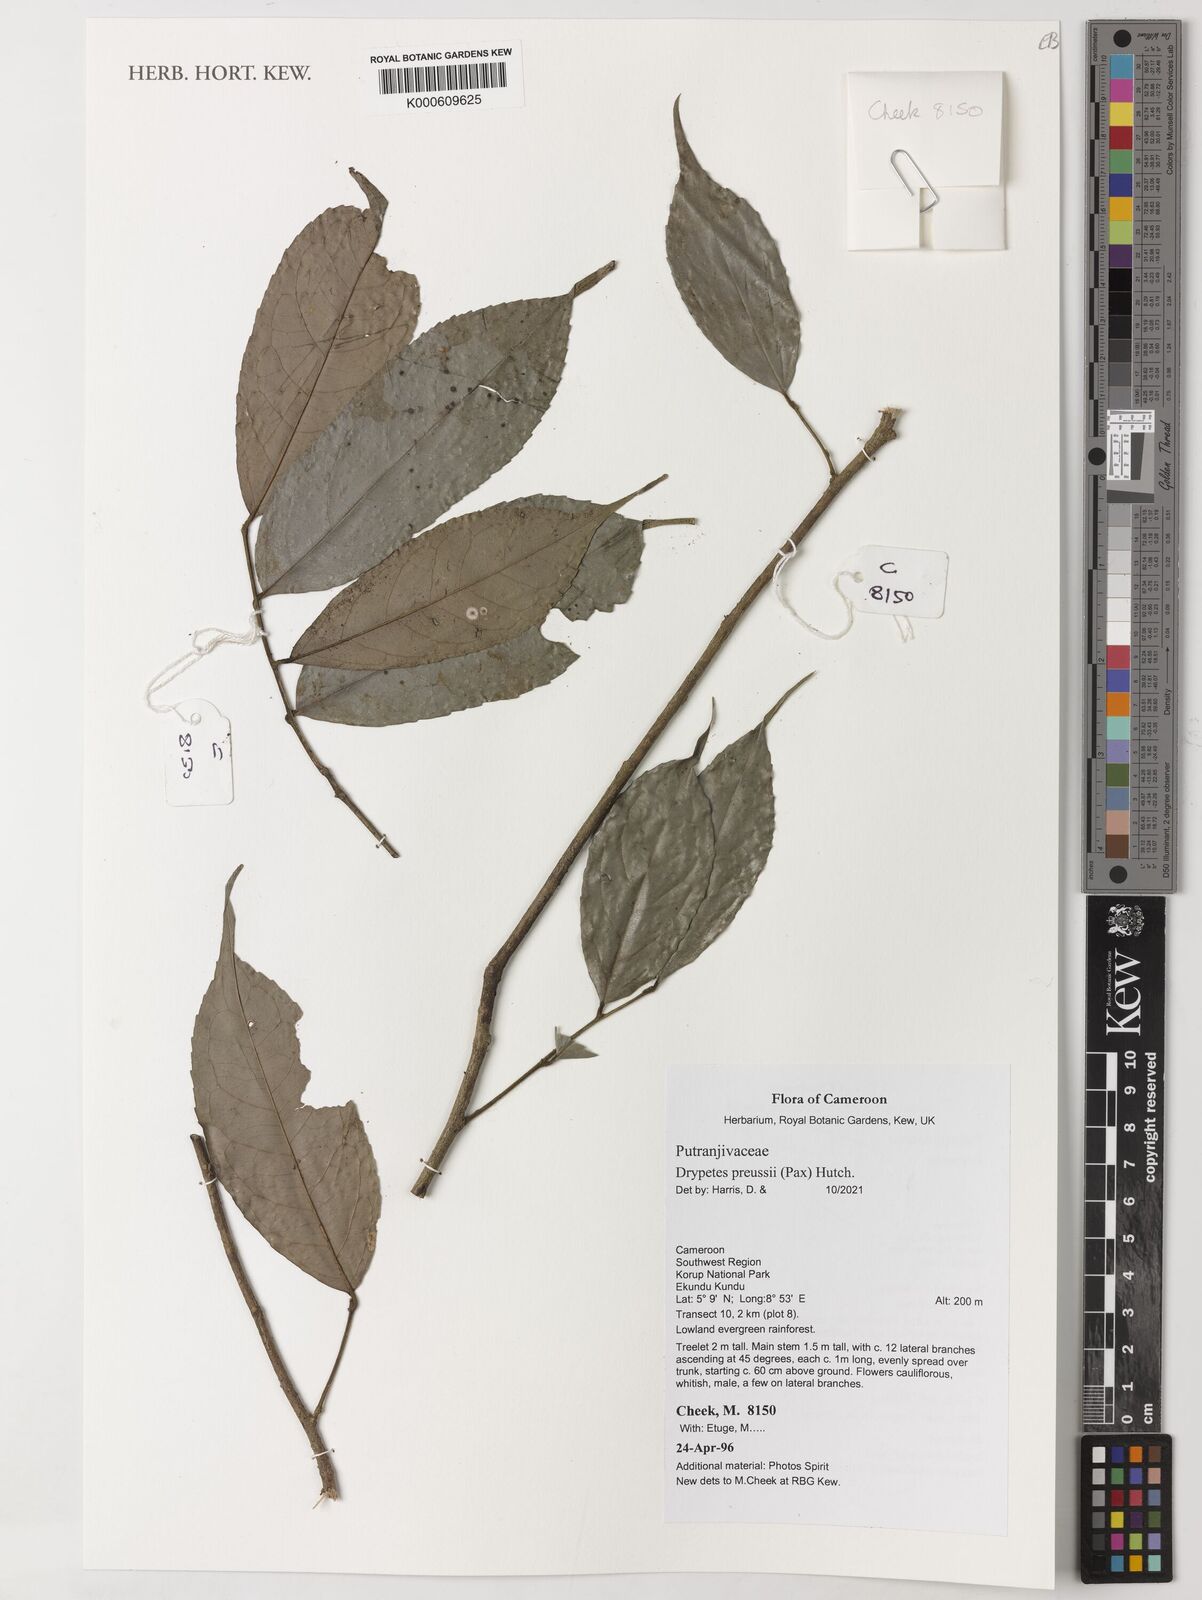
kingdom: Plantae
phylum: Tracheophyta
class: Magnoliopsida
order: Malpighiales
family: Putranjivaceae
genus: Drypetes
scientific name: Drypetes preussii
